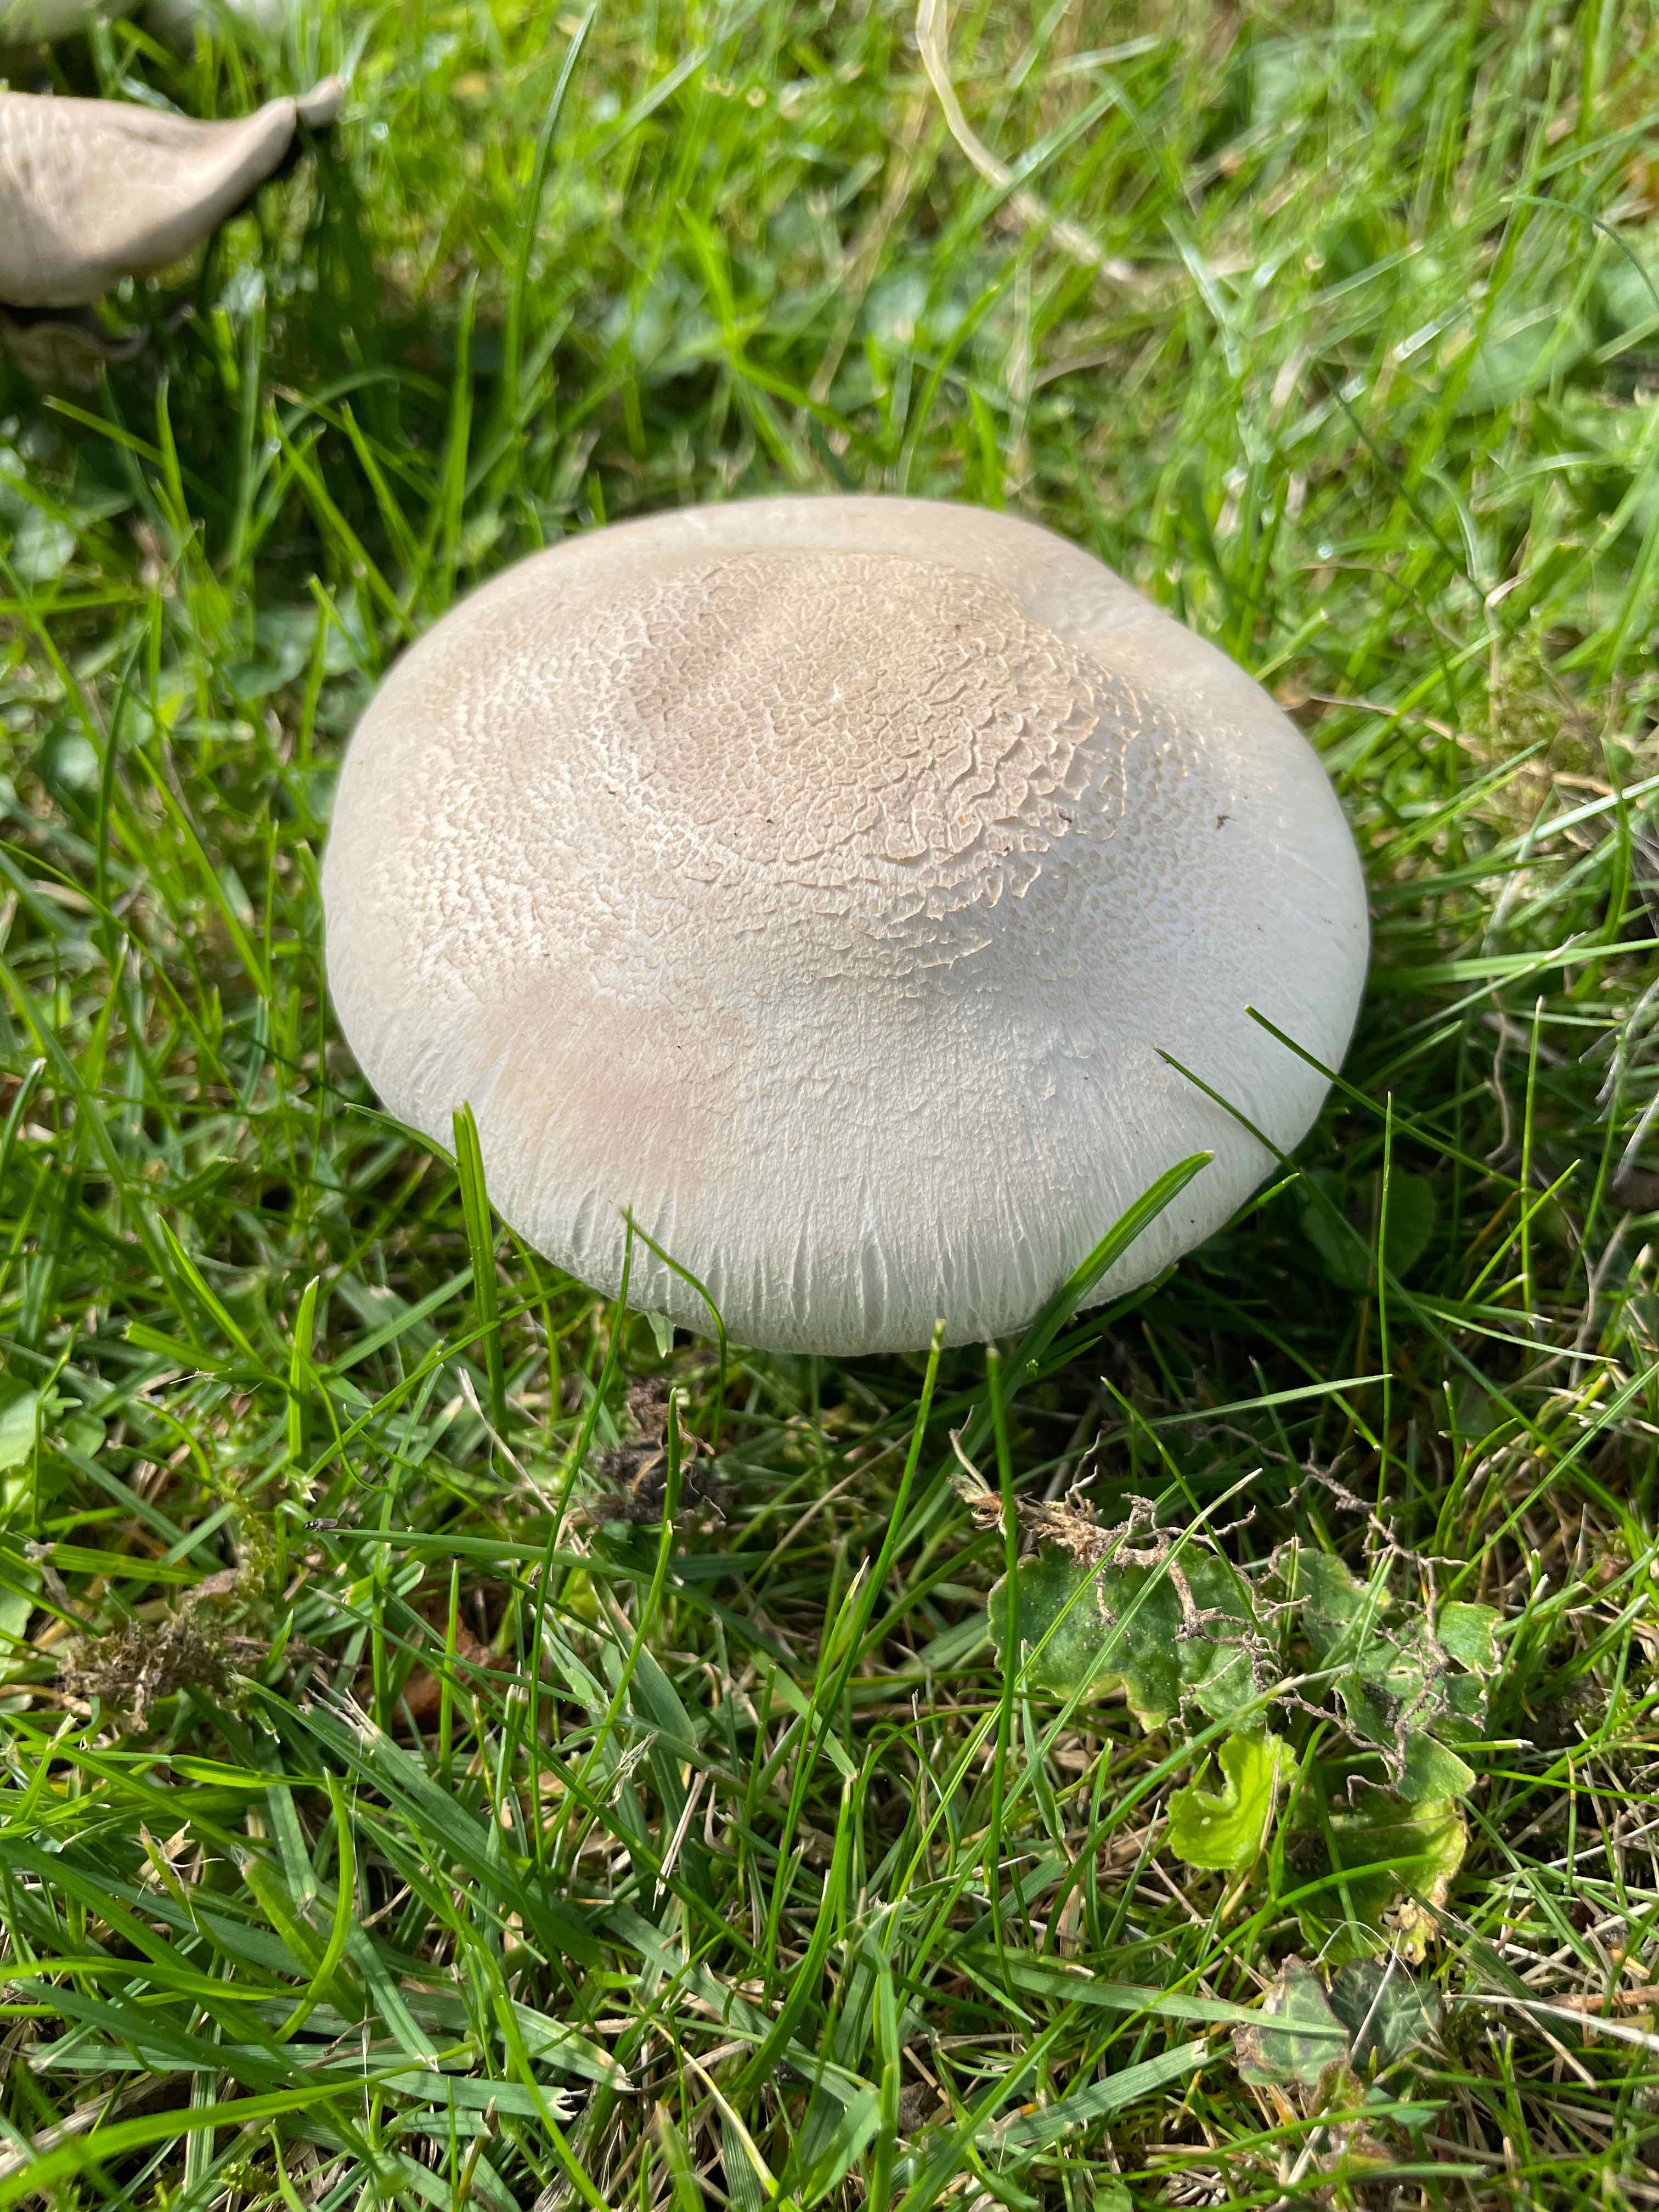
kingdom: Fungi
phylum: Basidiomycota
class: Agaricomycetes
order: Agaricales
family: Agaricaceae
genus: Agaricus
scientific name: Agaricus xanthodermus
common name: karbol-champignon
